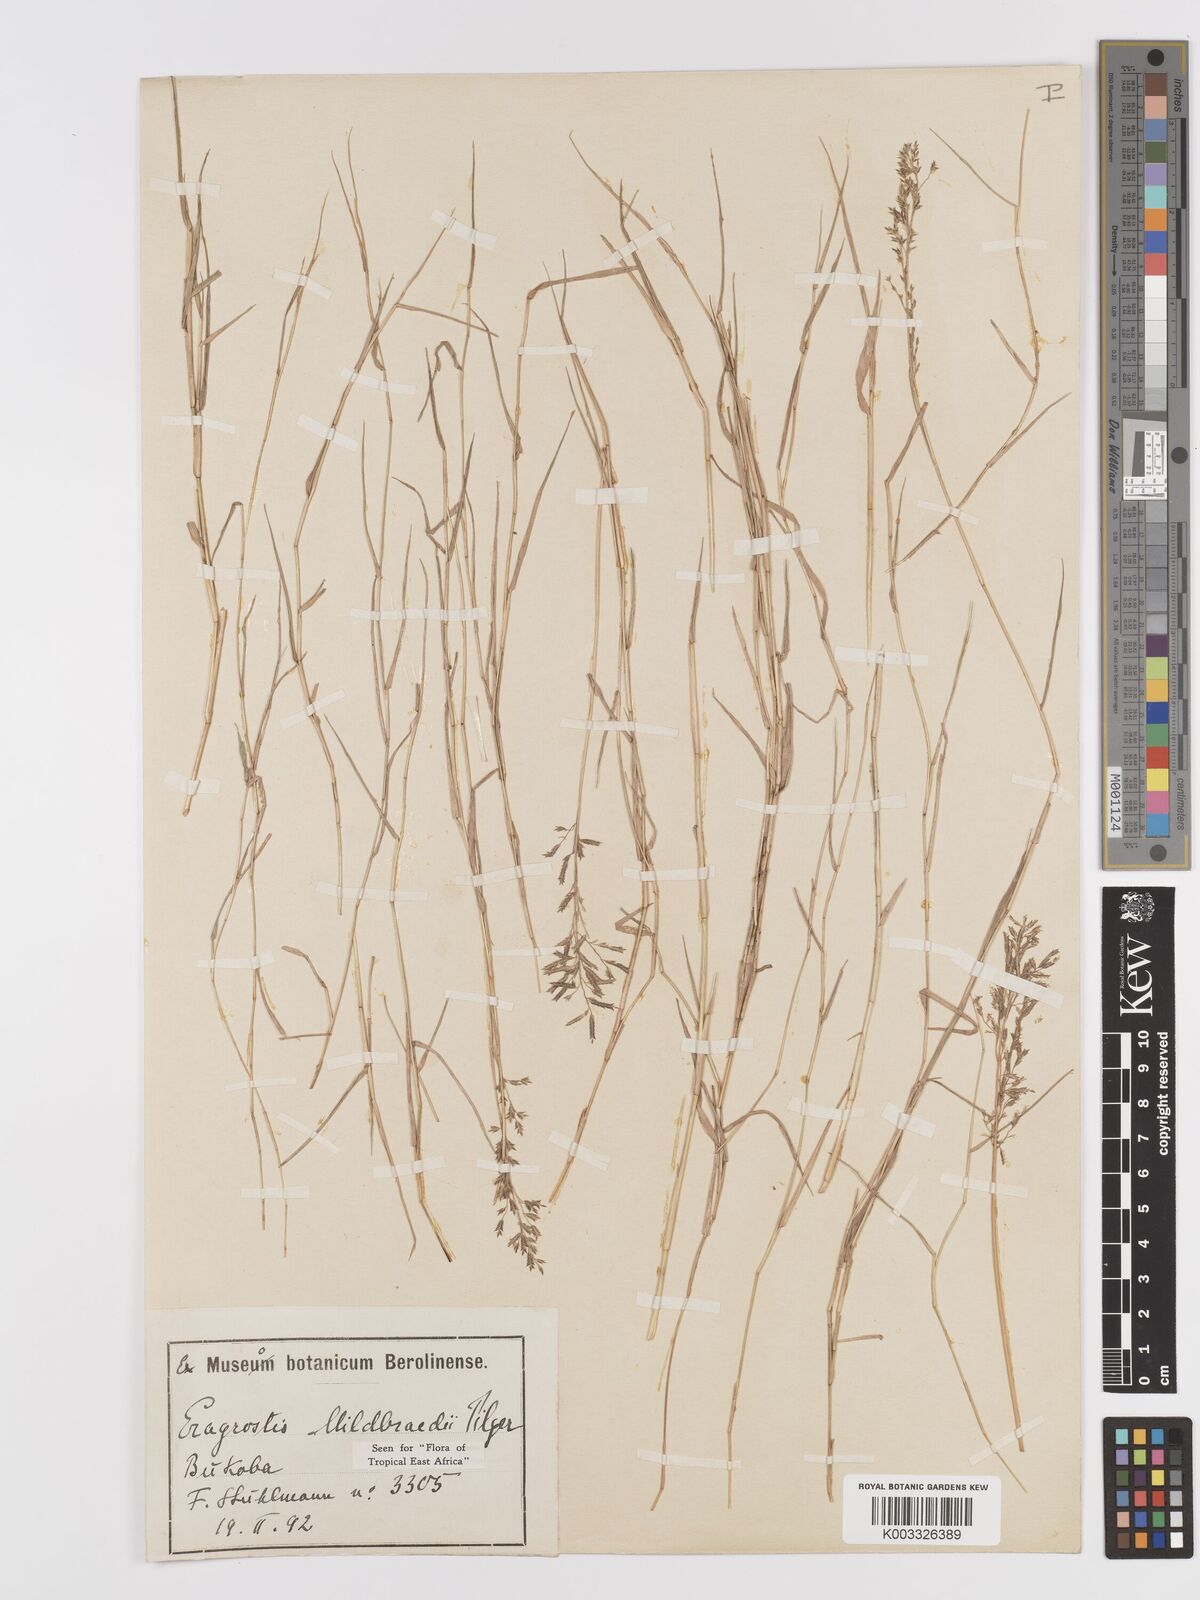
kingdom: Plantae
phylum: Tracheophyta
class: Liliopsida
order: Poales
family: Poaceae
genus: Eragrostis
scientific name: Eragrostis mildbraedii
